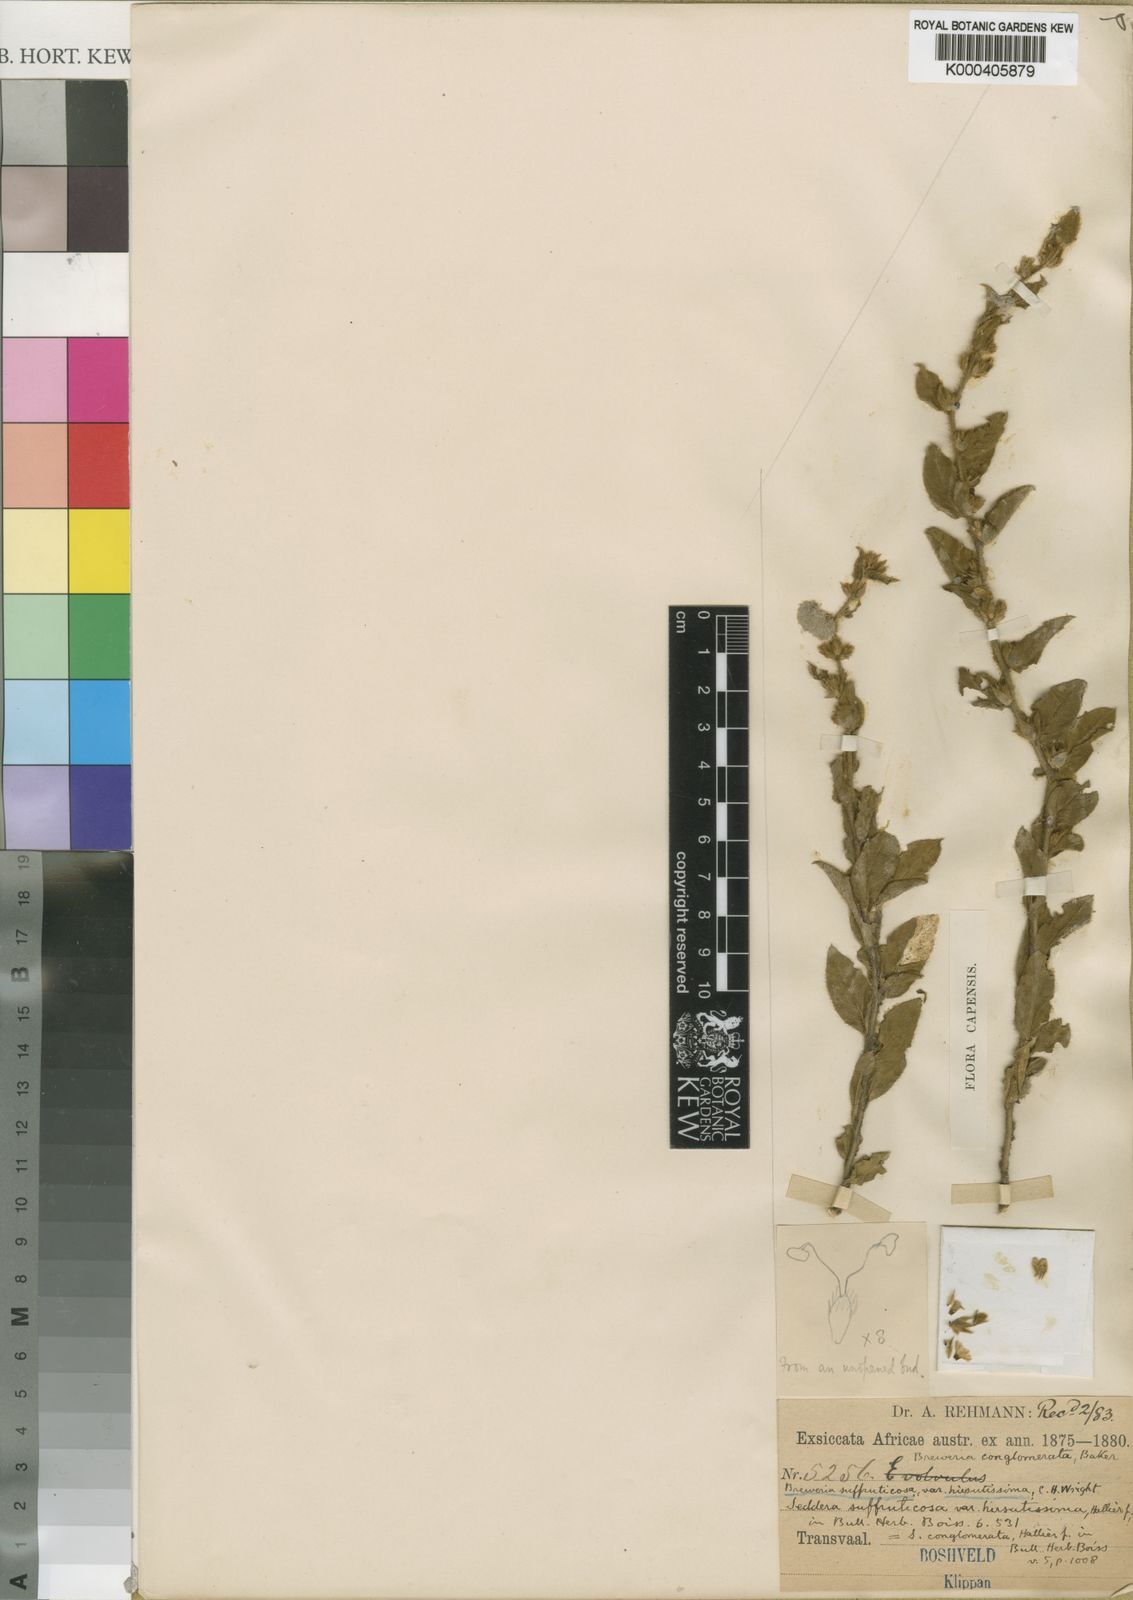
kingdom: Plantae
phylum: Tracheophyta
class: Magnoliopsida
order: Solanales
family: Convolvulaceae
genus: Seddera
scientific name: Seddera suffruticosa
